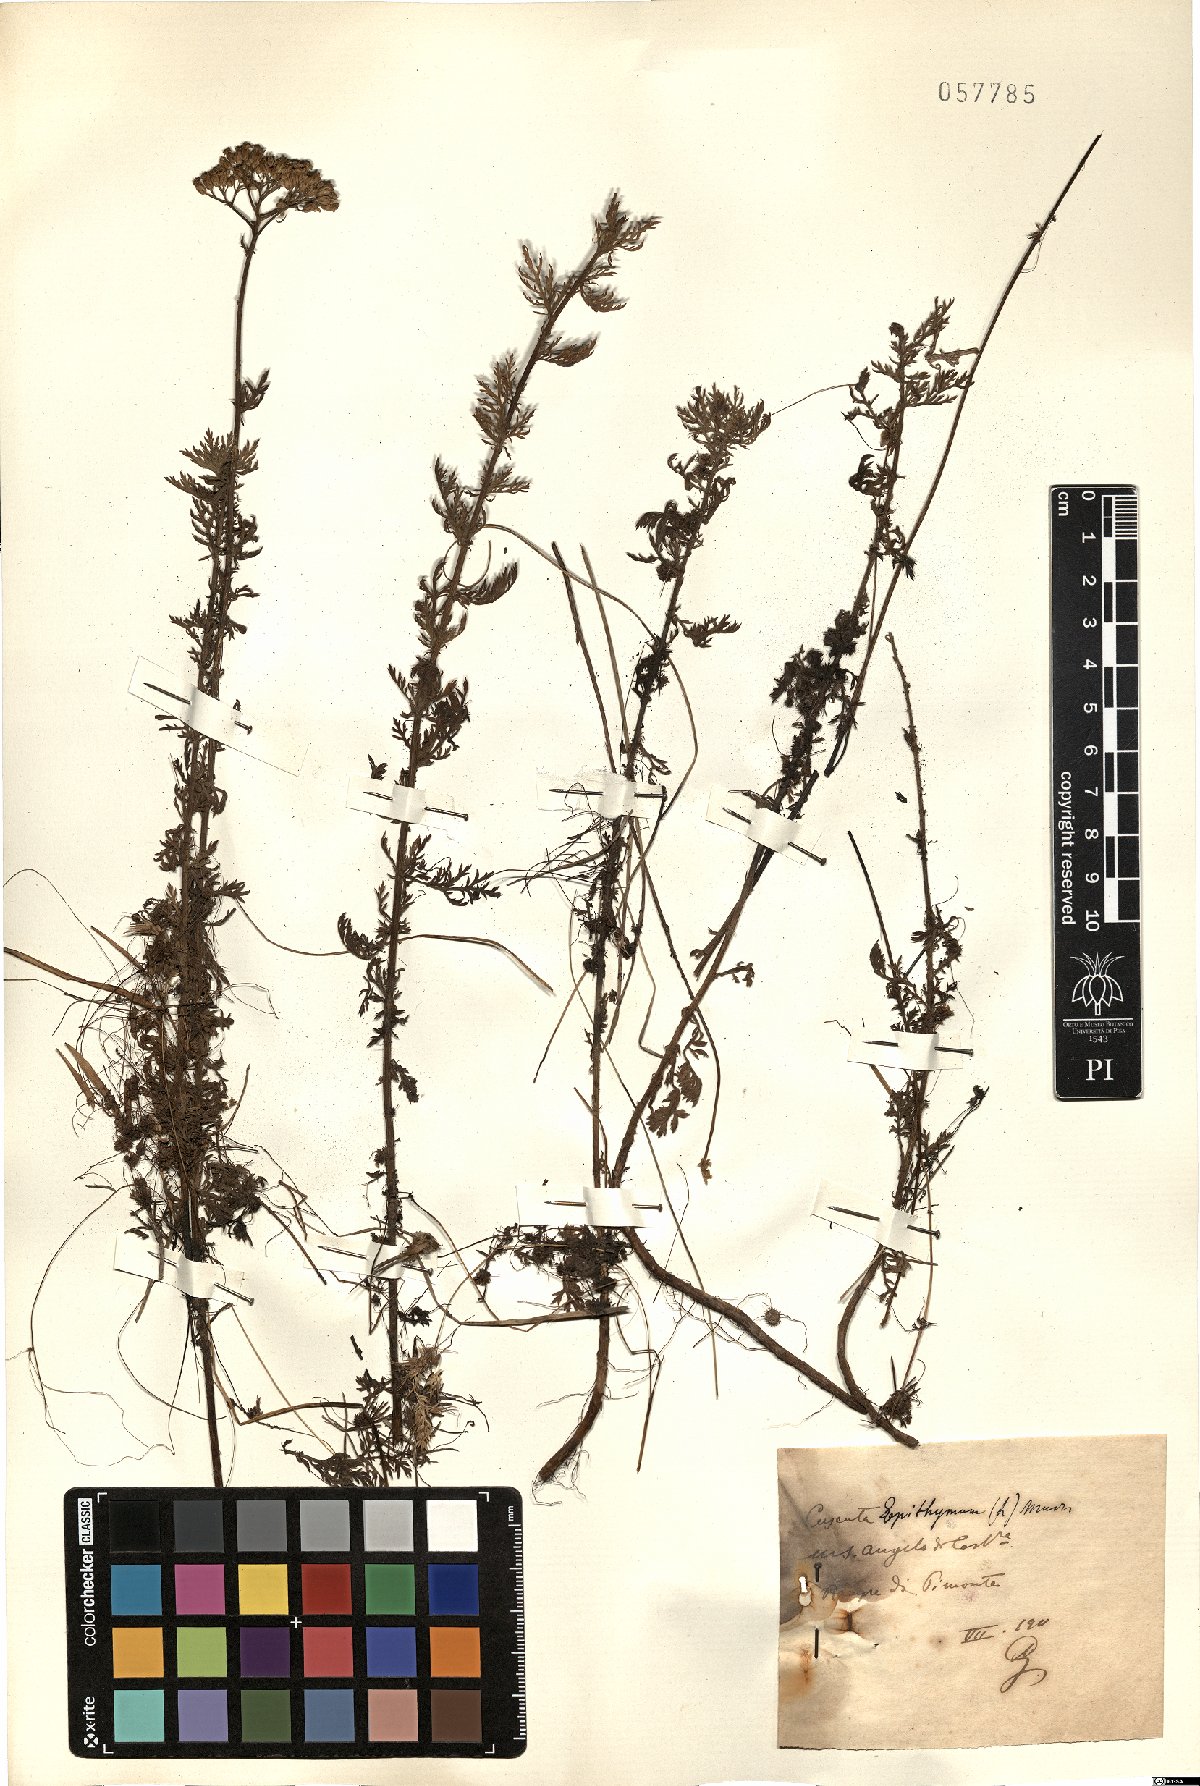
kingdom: Plantae
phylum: Tracheophyta
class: Magnoliopsida
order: Solanales
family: Convolvulaceae
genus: Cuscuta
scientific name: Cuscuta epithymum
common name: Clover dodder
